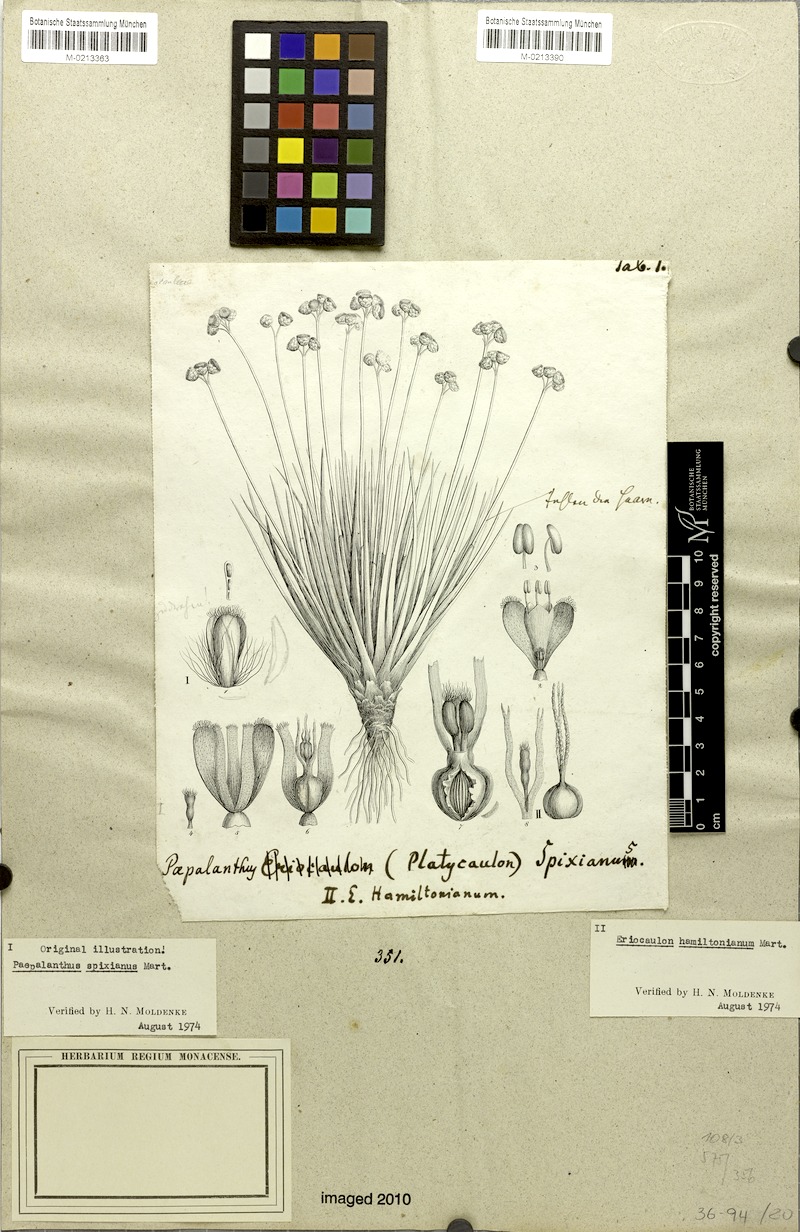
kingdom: Plantae
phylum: Tracheophyta
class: Liliopsida
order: Poales
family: Eriocaulaceae
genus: Paepalanthus
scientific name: Paepalanthus spixianus
